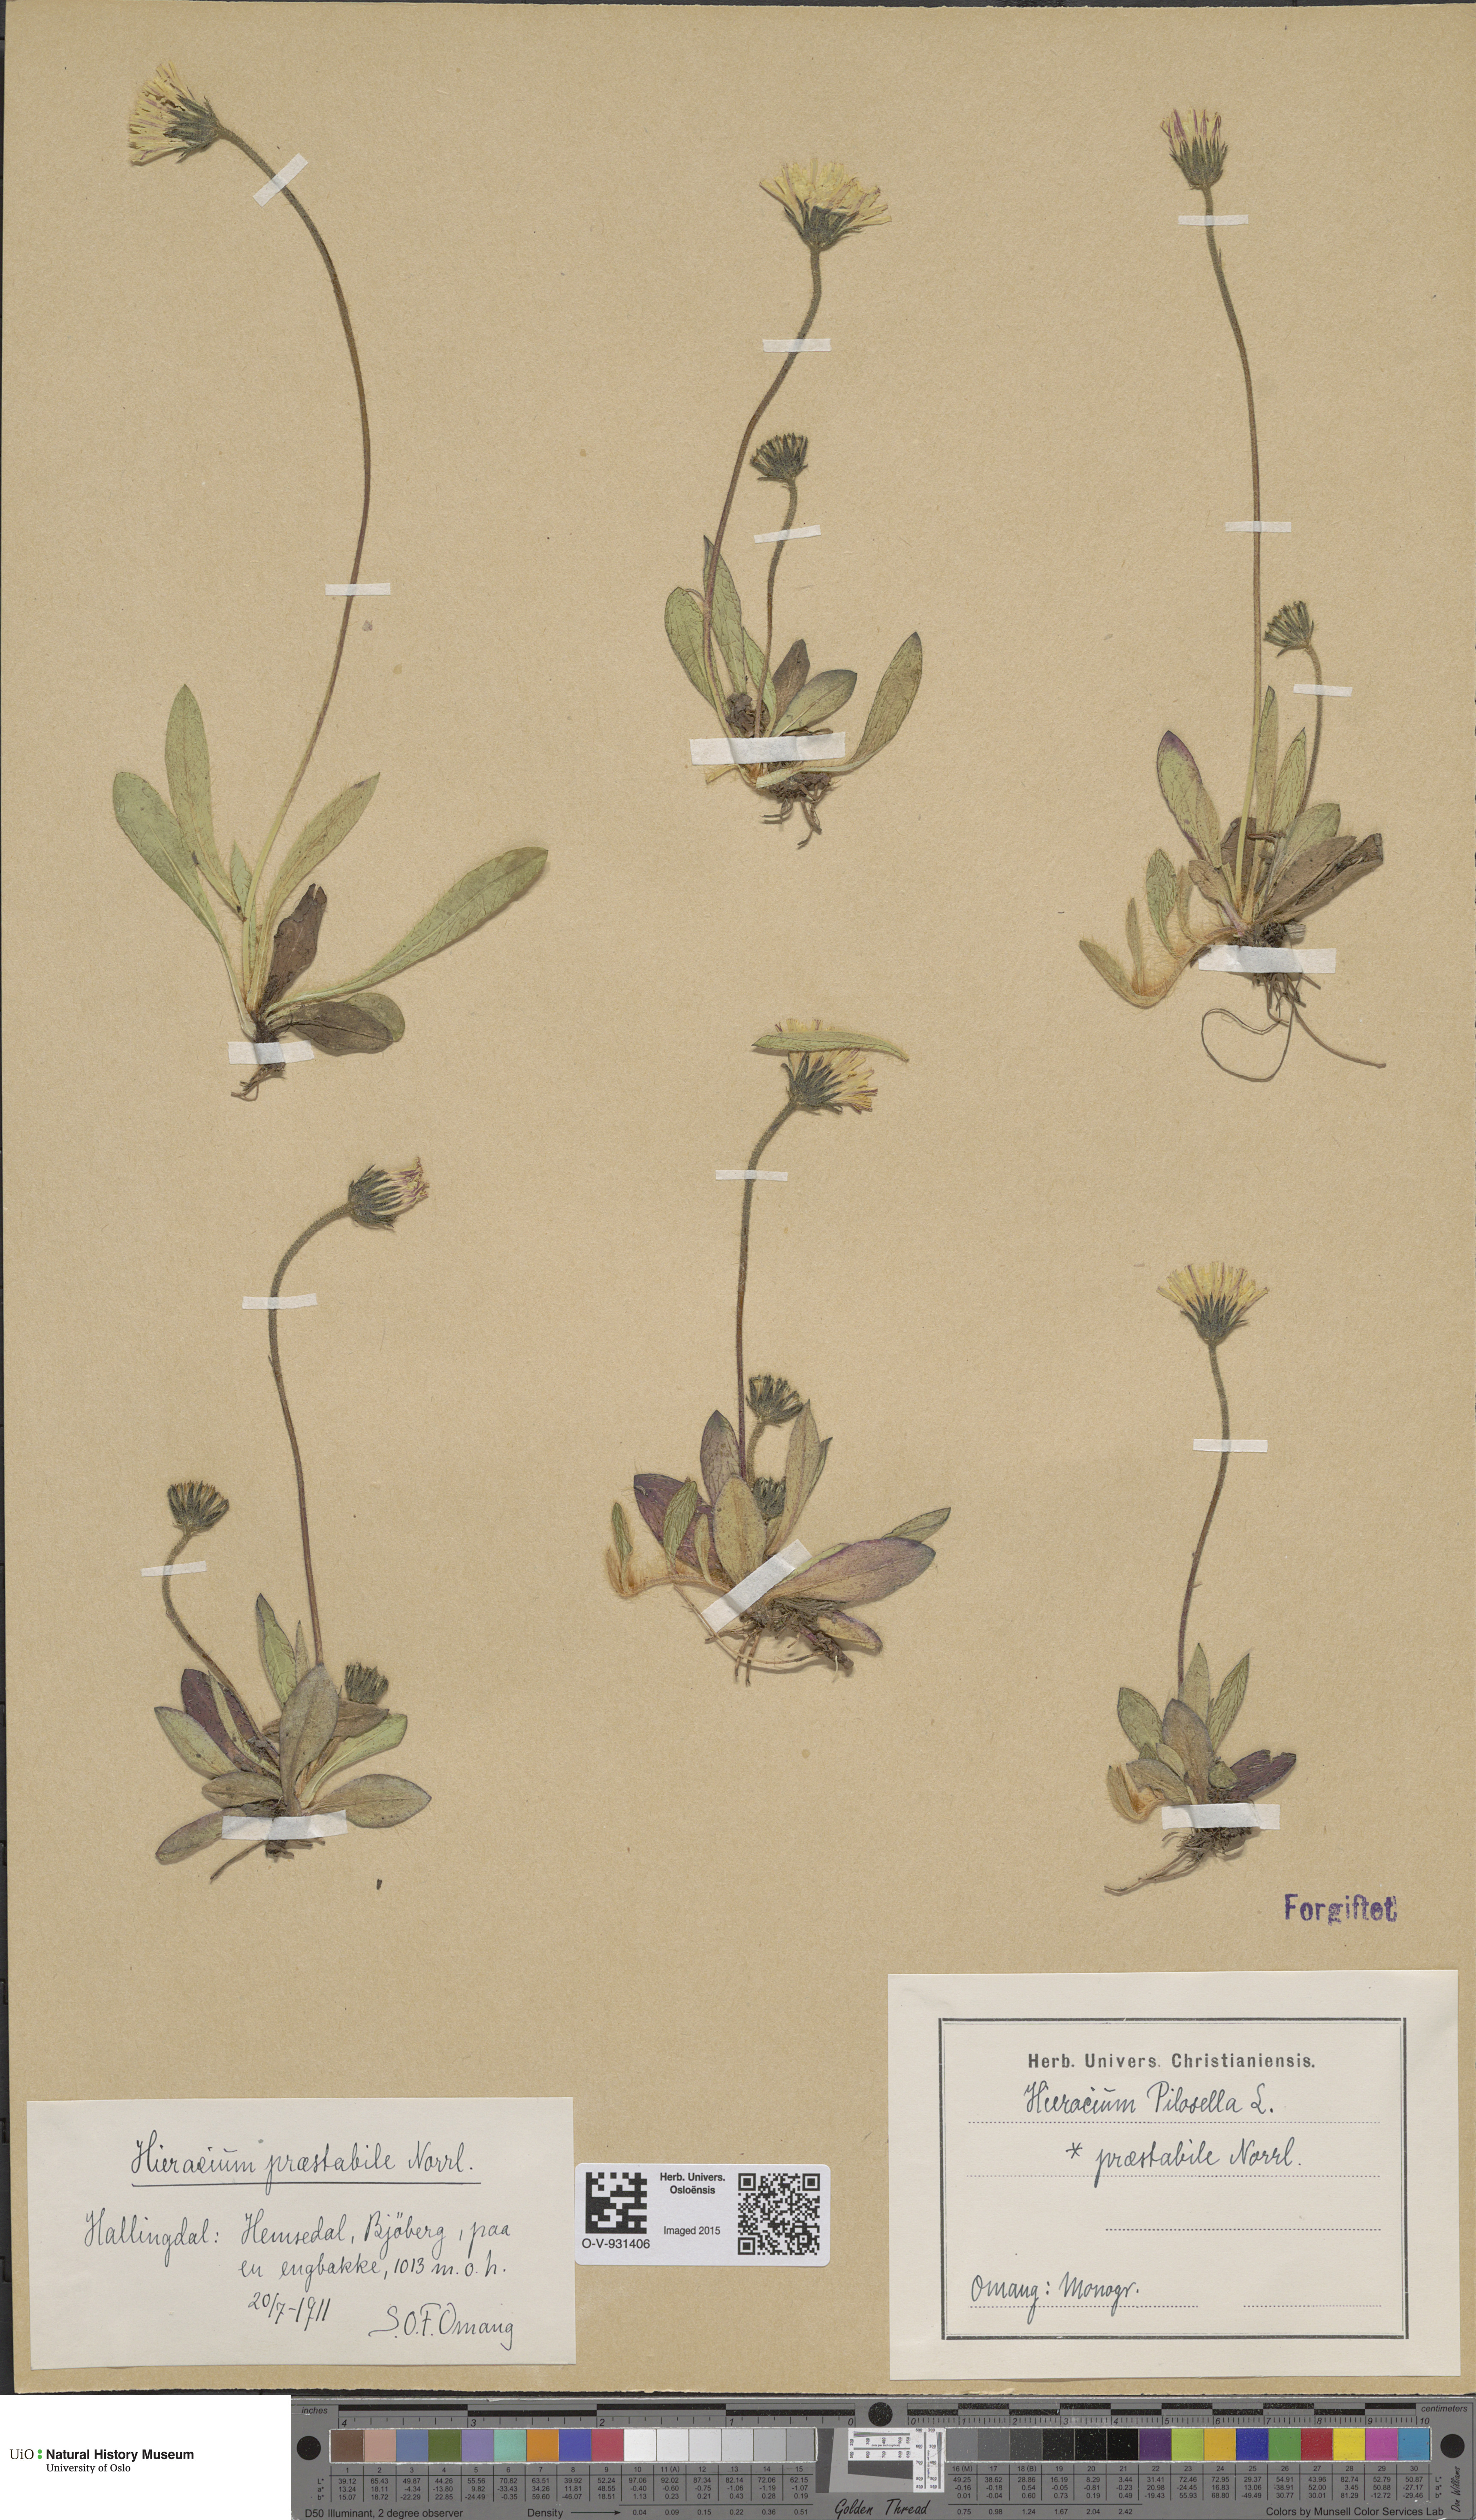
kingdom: Plantae
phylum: Tracheophyta
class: Magnoliopsida
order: Asterales
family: Asteraceae
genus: Pilosella
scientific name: Pilosella officinarum
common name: Mouse-ear hawkweed
